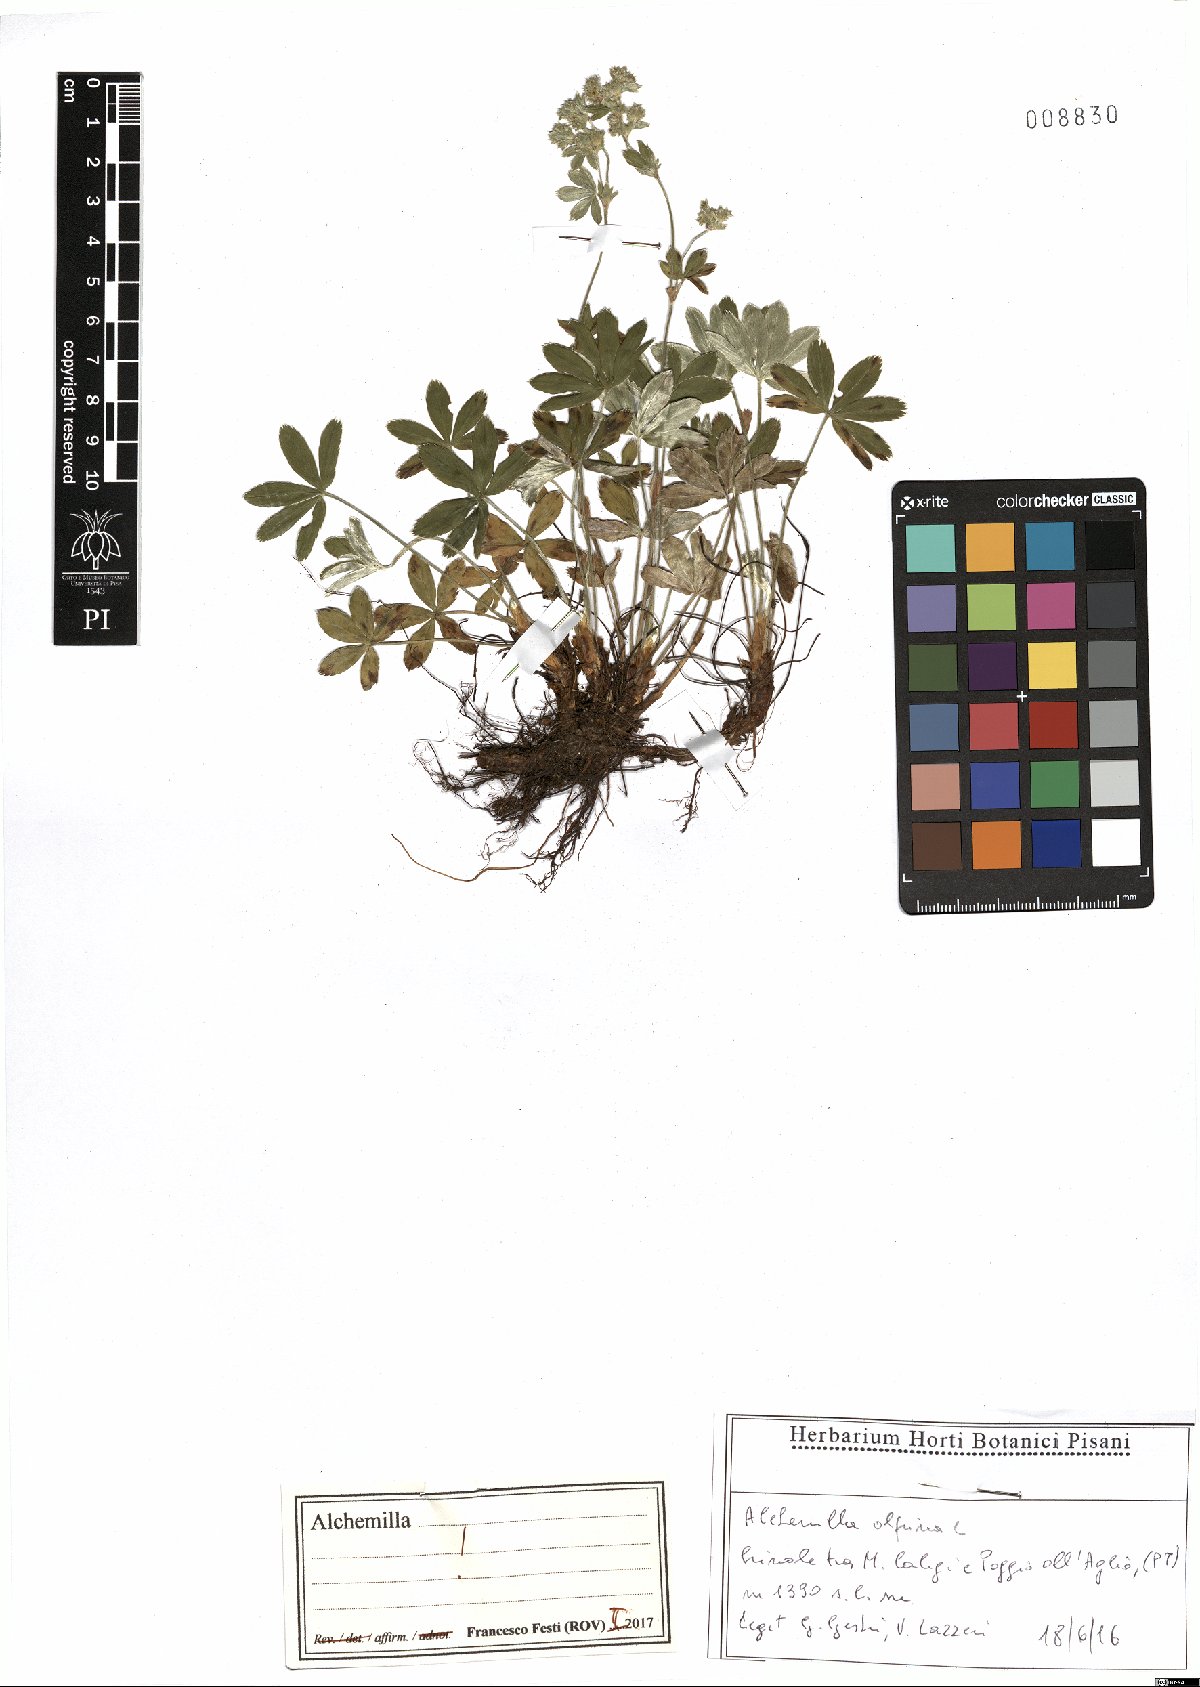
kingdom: Plantae
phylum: Tracheophyta
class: Magnoliopsida
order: Rosales
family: Rosaceae
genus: Alchemilla
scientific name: Alchemilla alpina
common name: Alpine lady's-mantle
